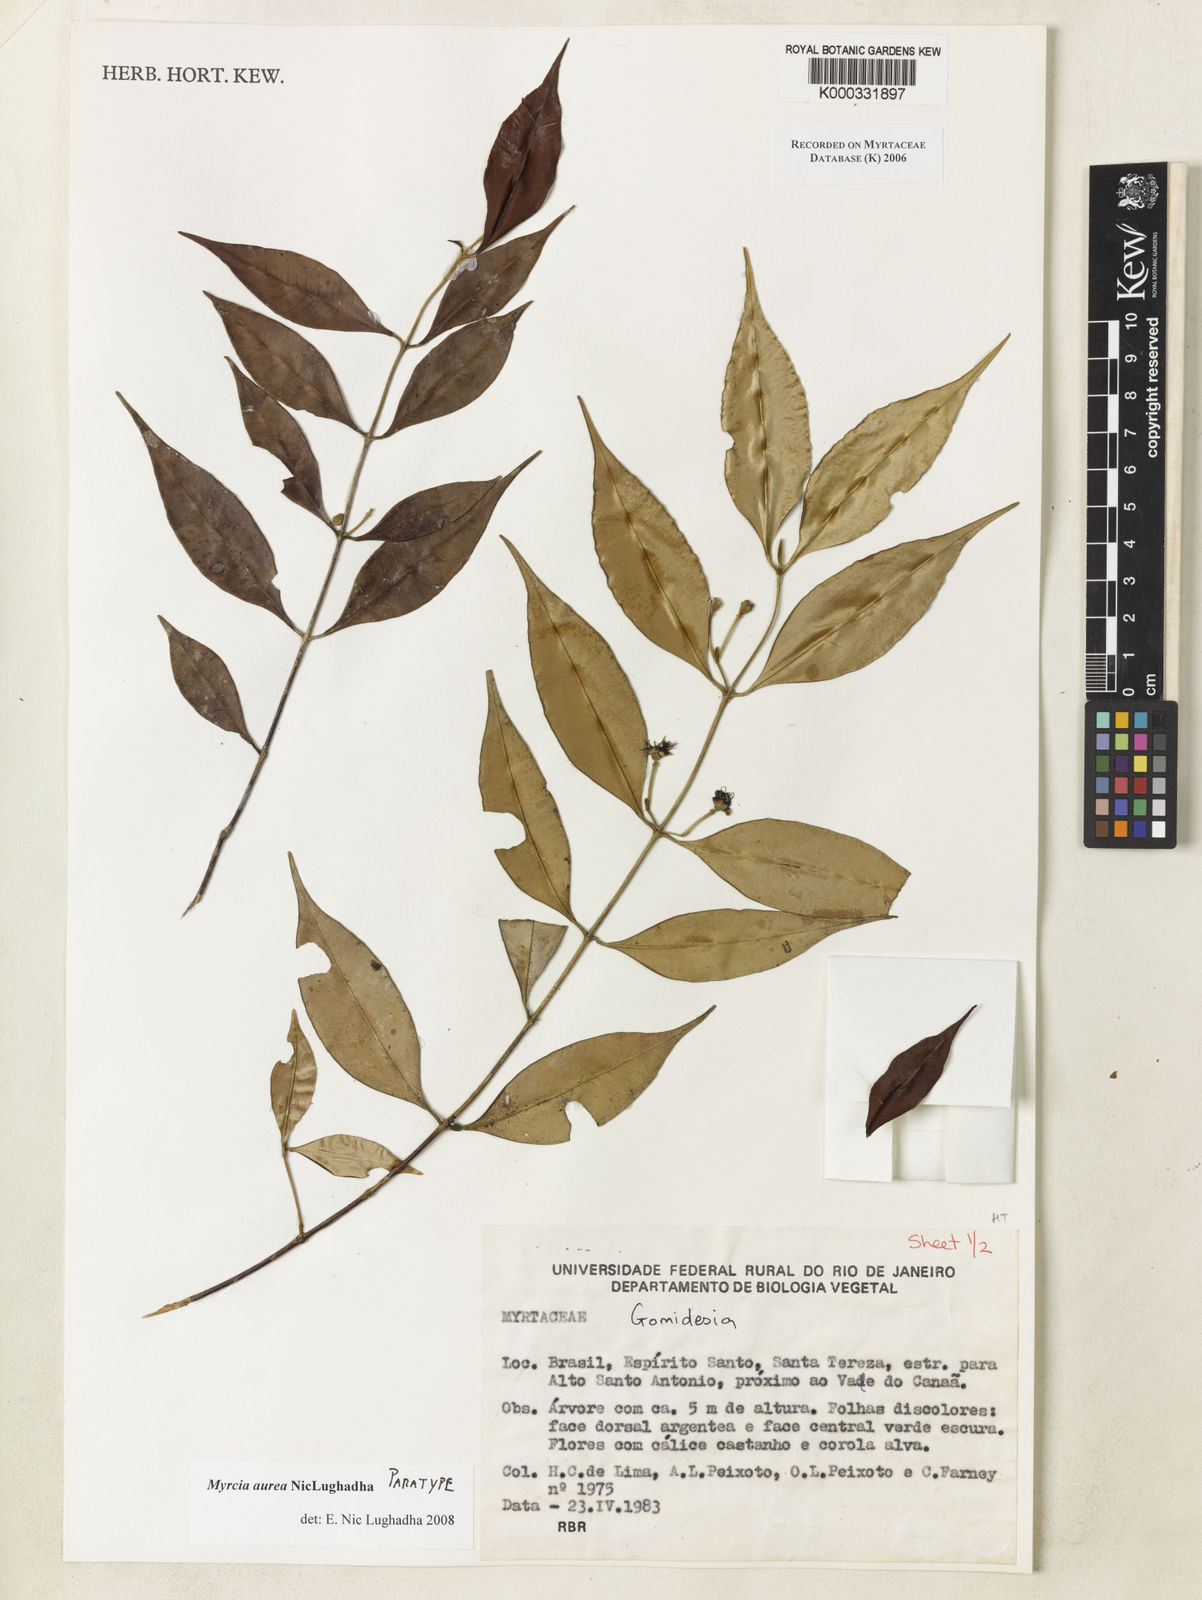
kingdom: Plantae
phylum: Tracheophyta
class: Magnoliopsida
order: Myrtales
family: Myrtaceae
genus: Myrcia
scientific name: Myrcia aurea
